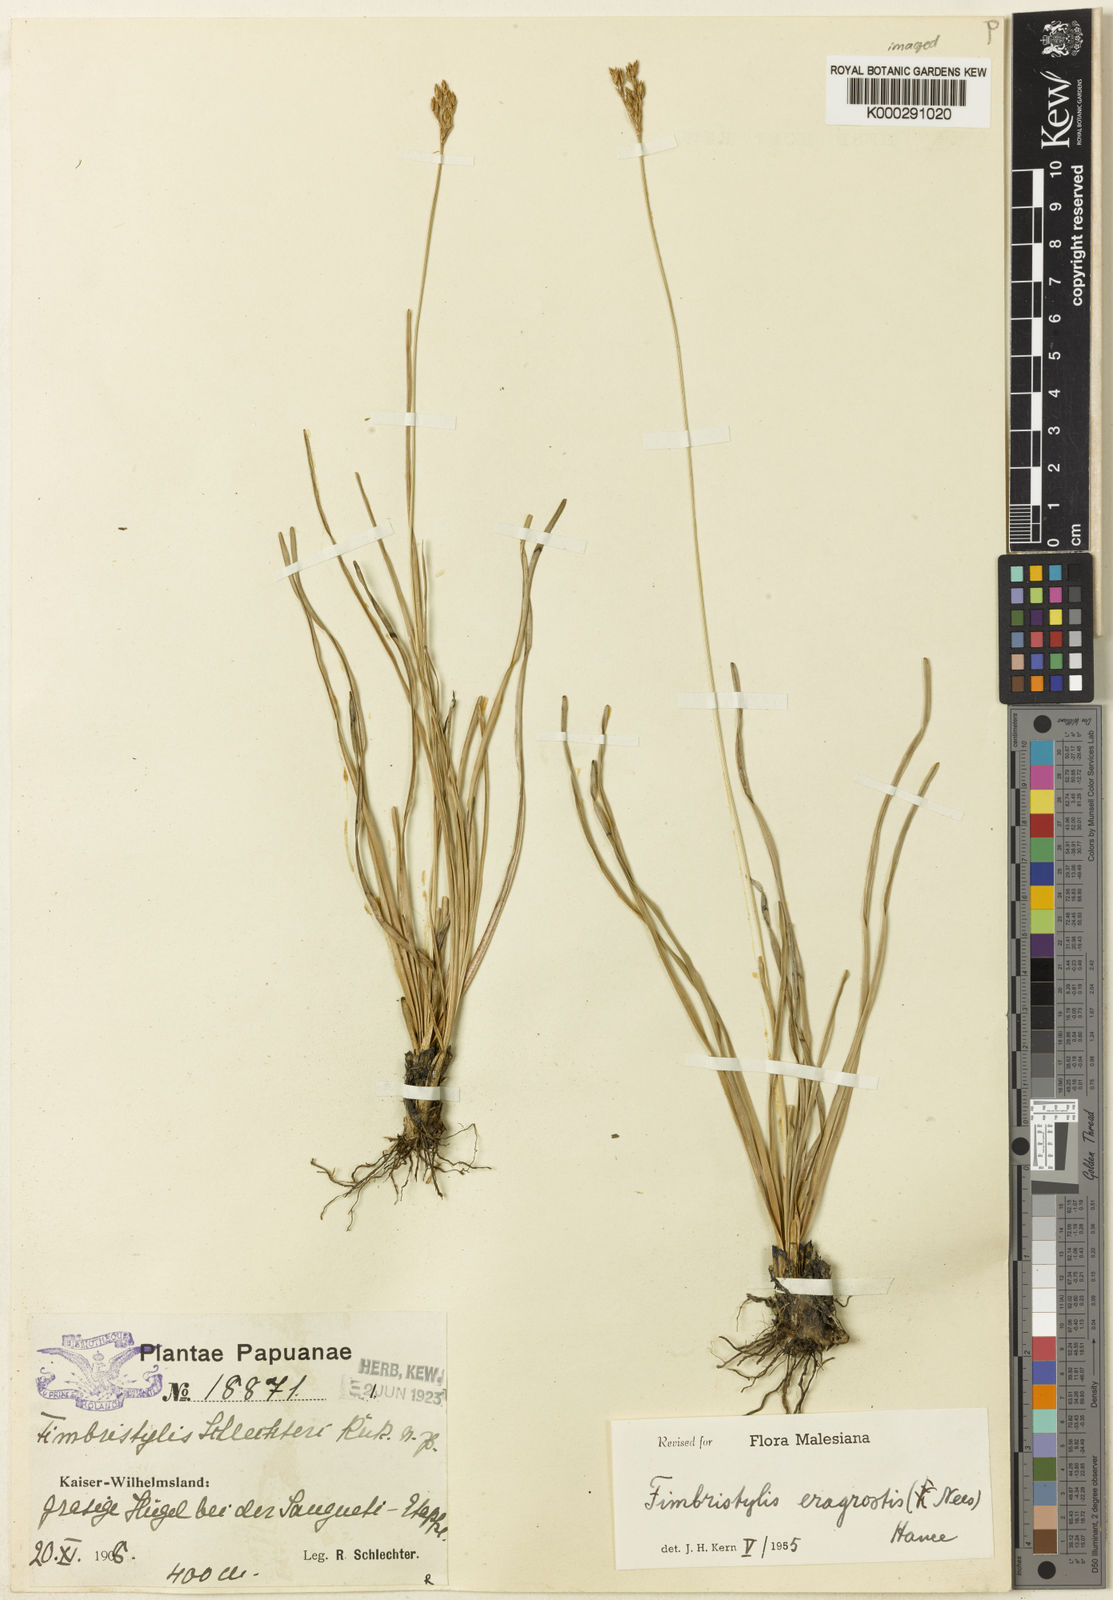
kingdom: Plantae
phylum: Tracheophyta
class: Liliopsida
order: Poales
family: Cyperaceae
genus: Fimbristylis
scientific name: Fimbristylis eragrostis
